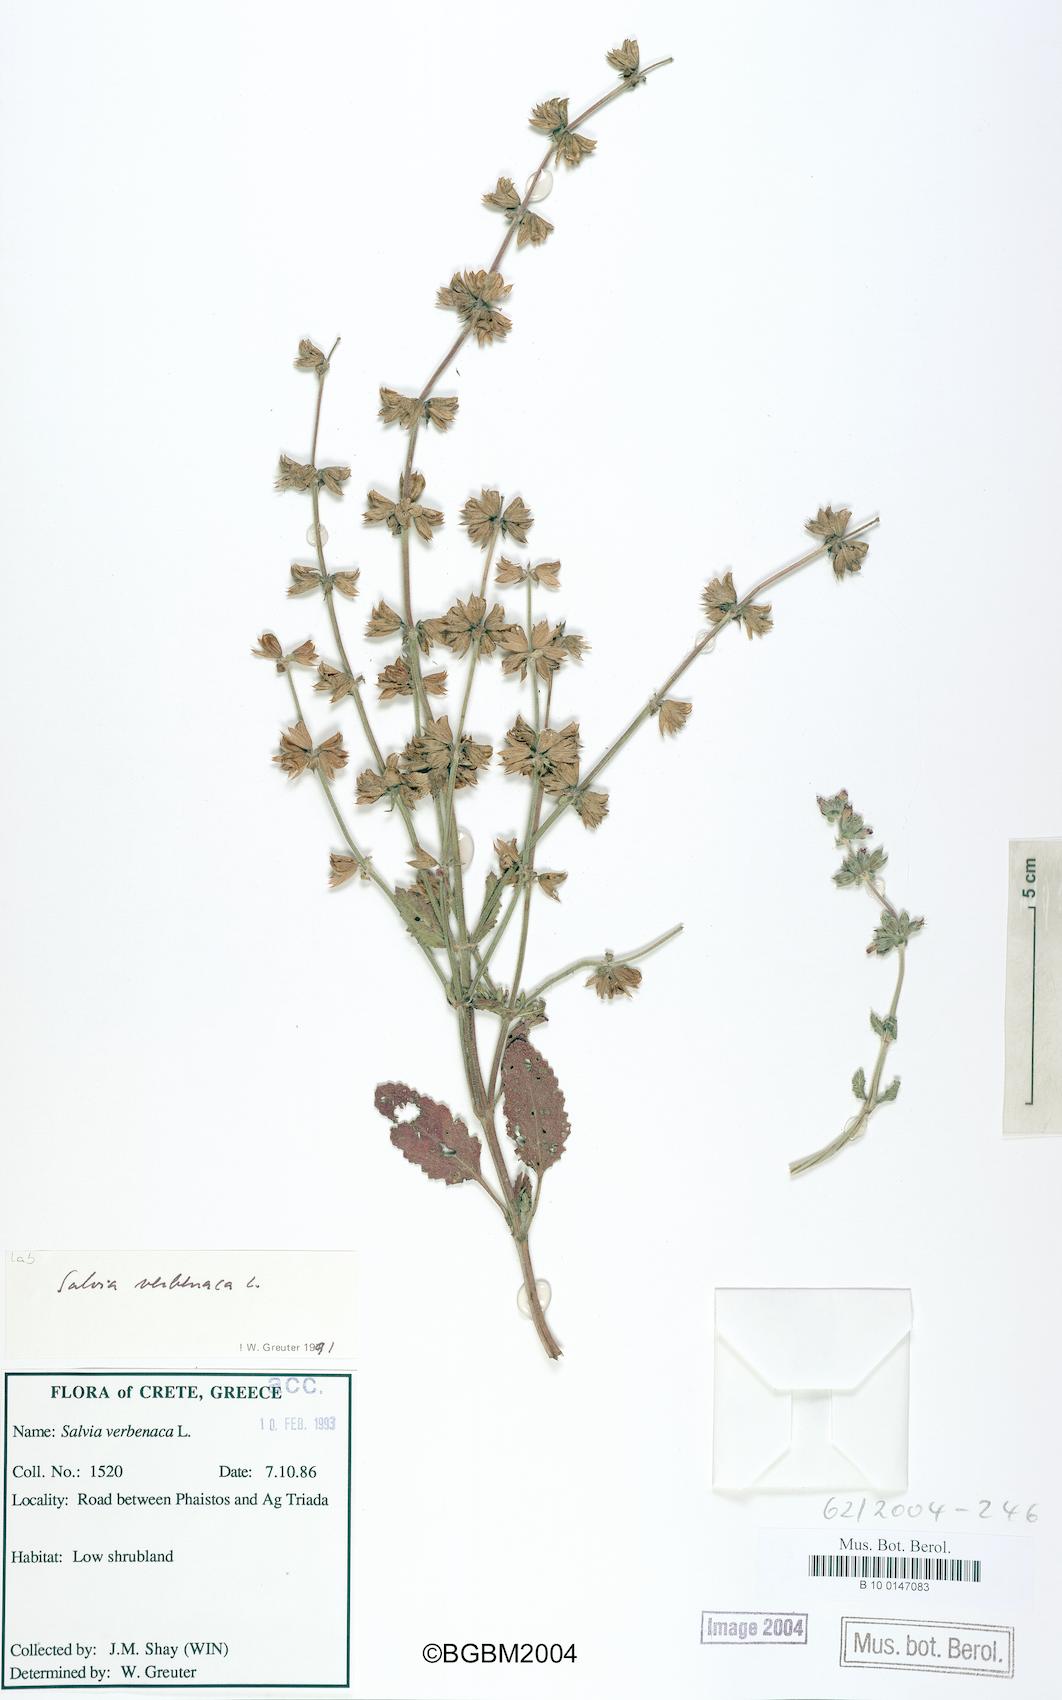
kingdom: Plantae
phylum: Tracheophyta
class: Magnoliopsida
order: Lamiales
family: Lamiaceae
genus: Salvia
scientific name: Salvia verbenaca
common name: Wild clary
